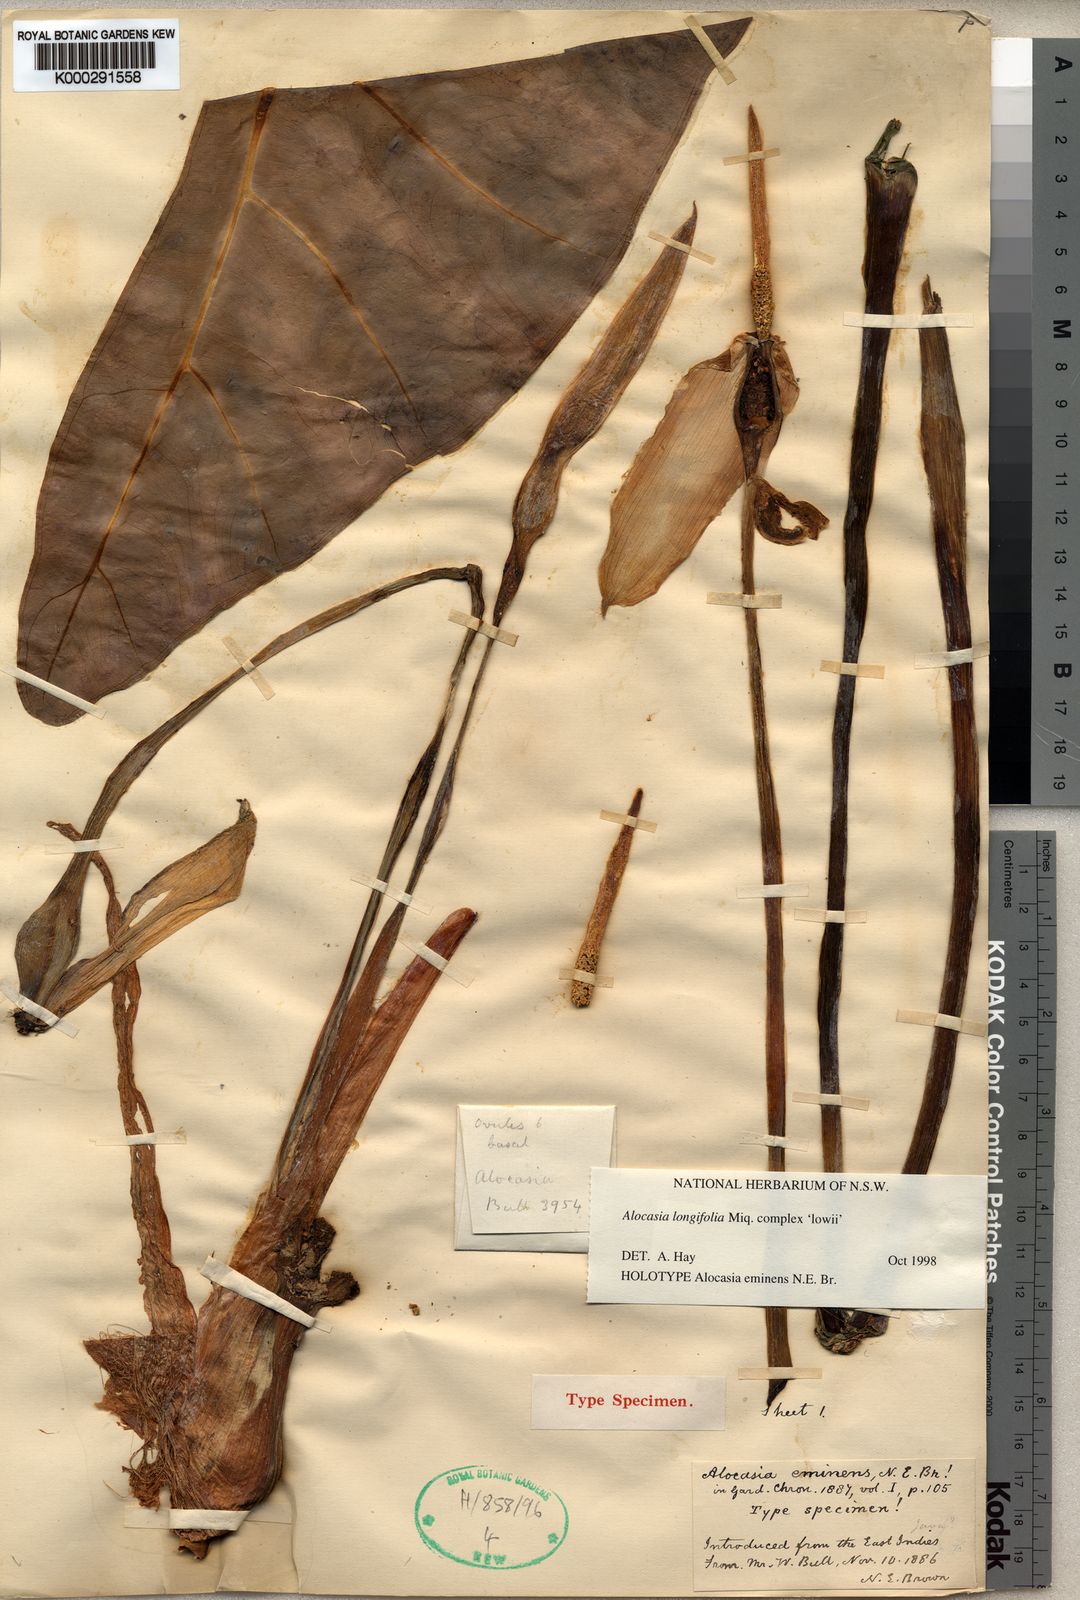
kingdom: Plantae
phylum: Tracheophyta
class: Liliopsida
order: Alismatales
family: Araceae
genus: Alocasia
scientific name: Alocasia longiloba
